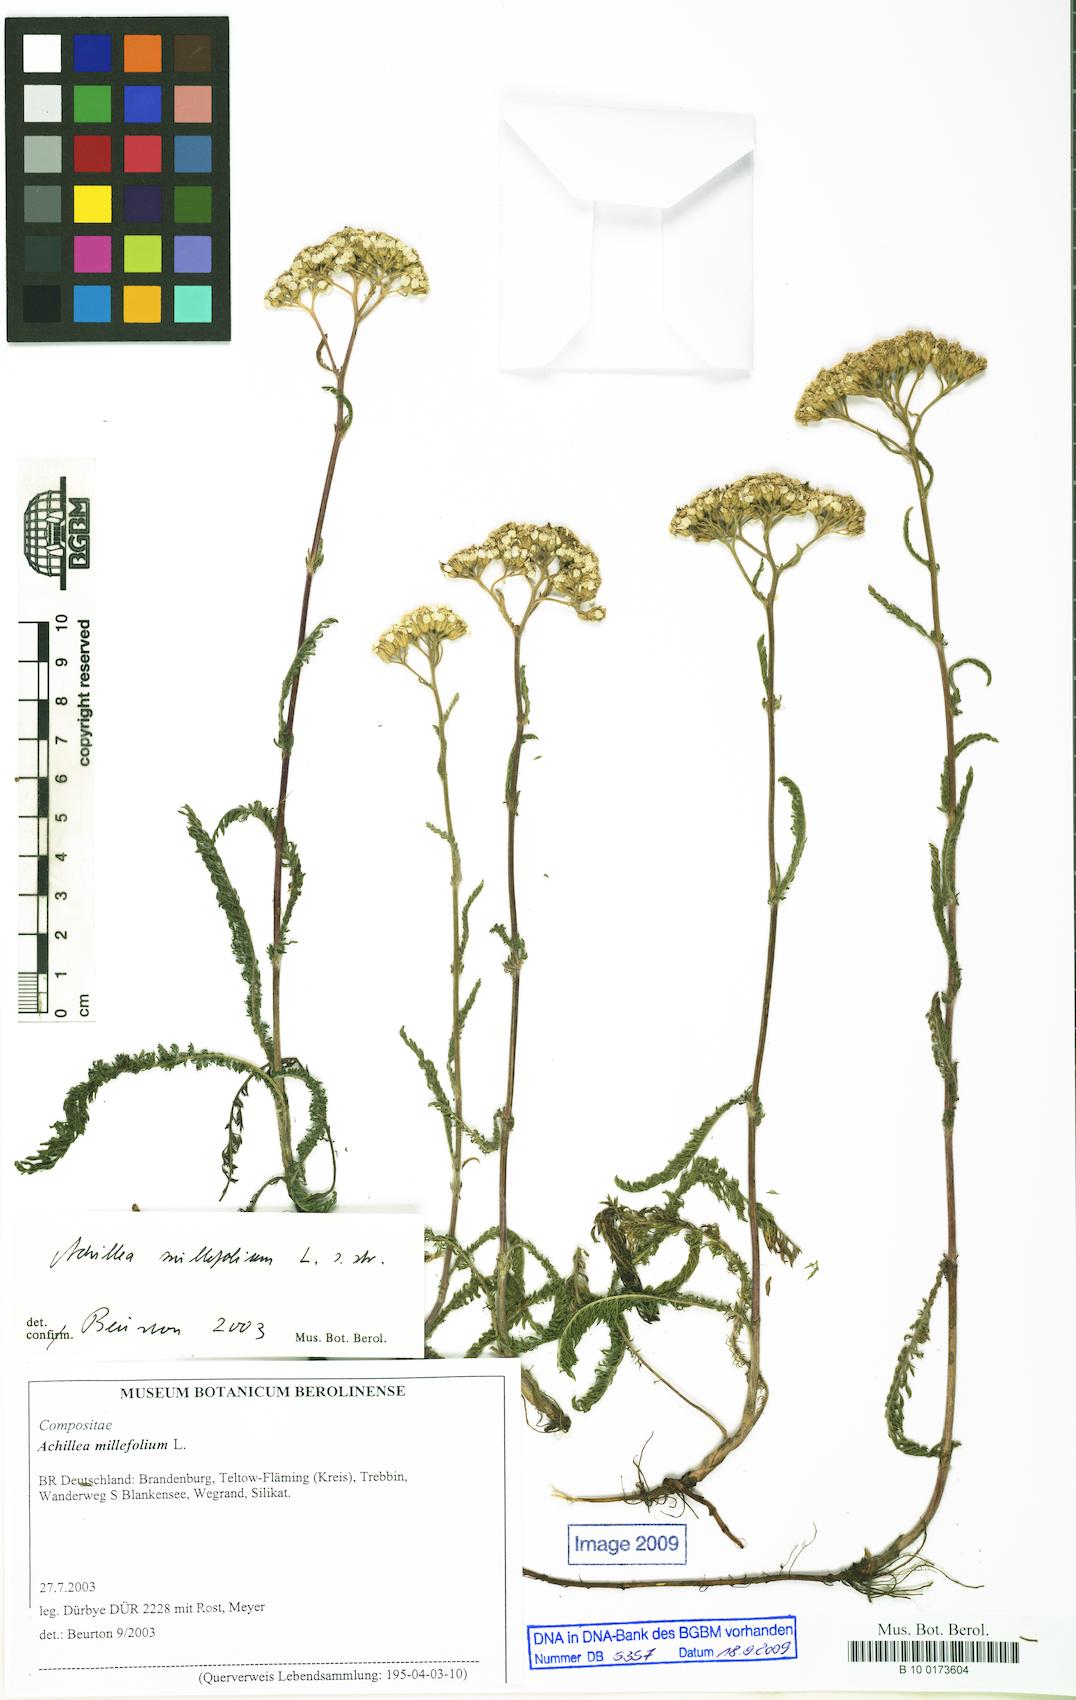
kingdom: Plantae
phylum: Tracheophyta
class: Magnoliopsida
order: Asterales
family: Asteraceae
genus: Achillea
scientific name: Achillea millefolium
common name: Yarrow
